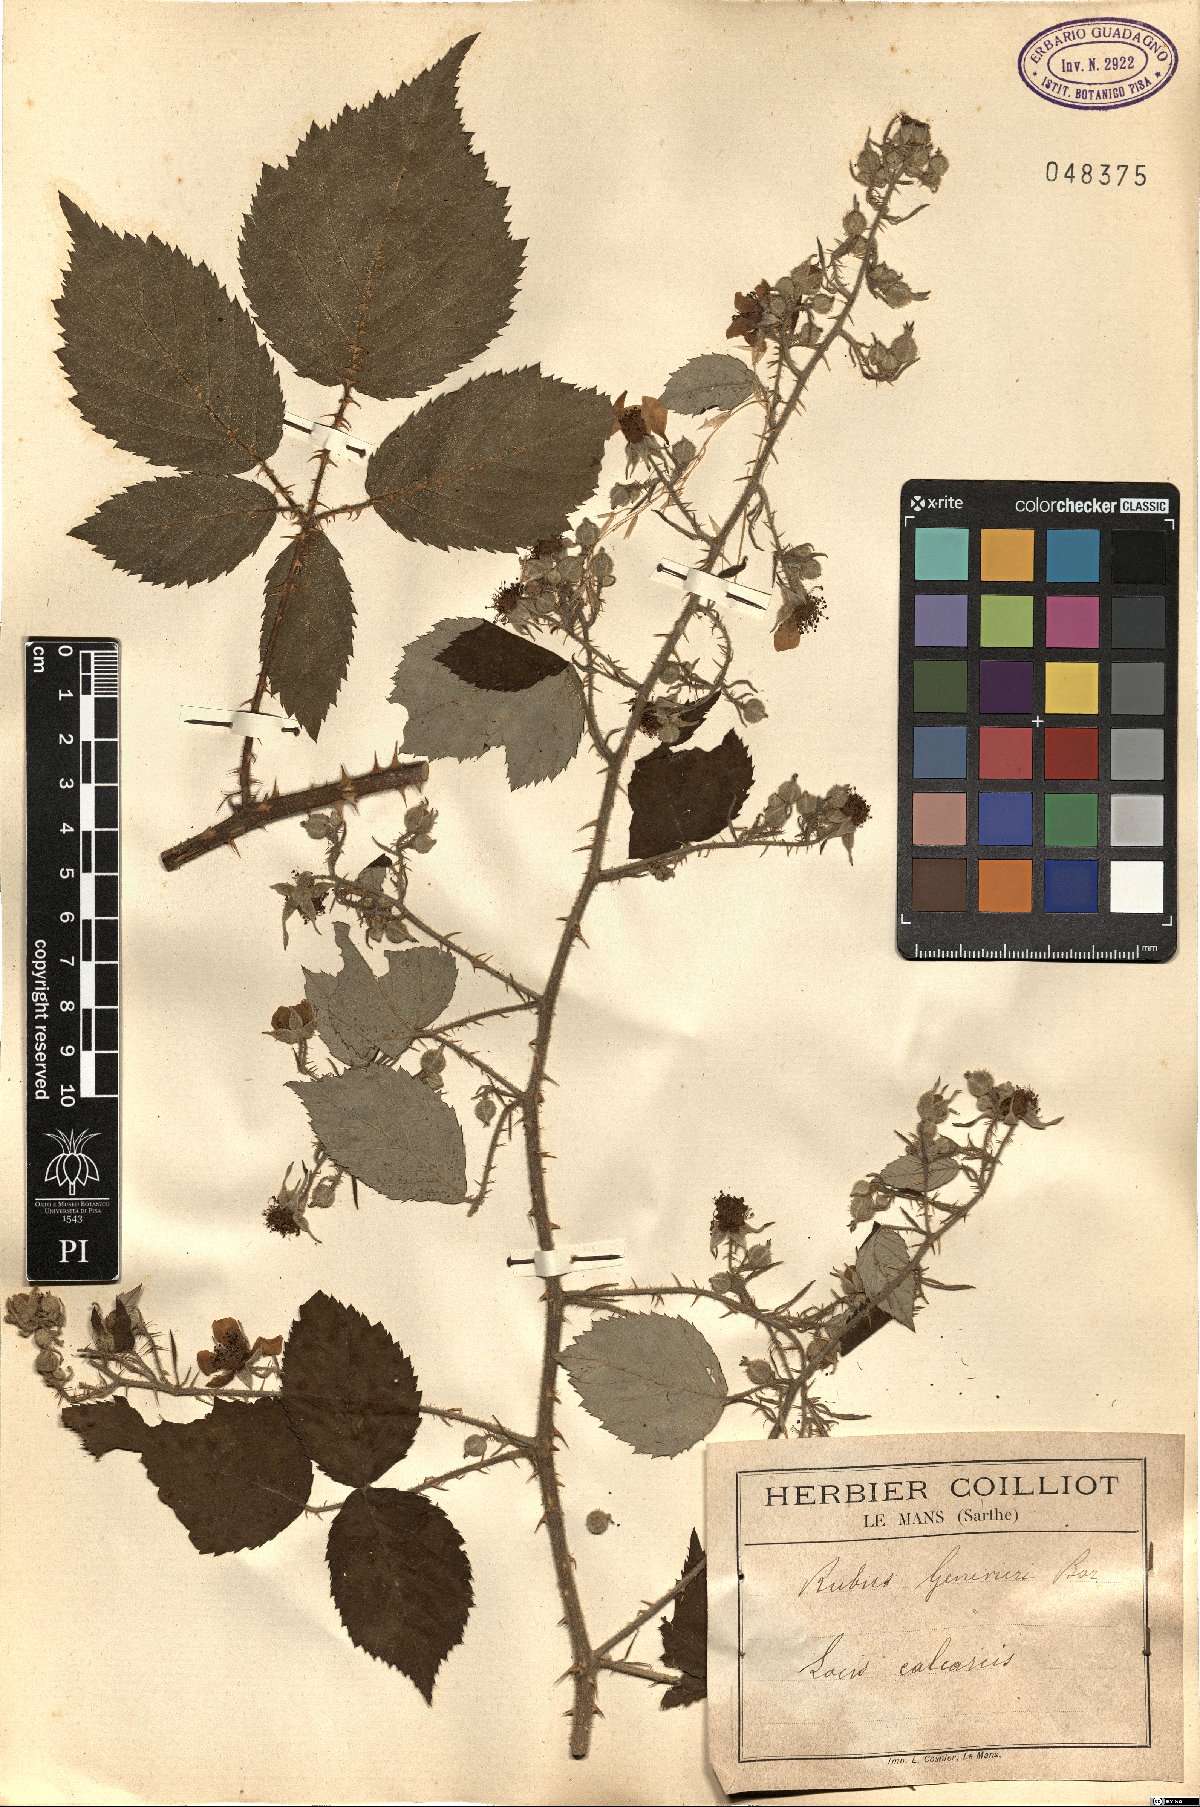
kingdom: Plantae
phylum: Tracheophyta
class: Magnoliopsida
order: Rosales
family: Rosaceae
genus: Rubus
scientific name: Rubus
